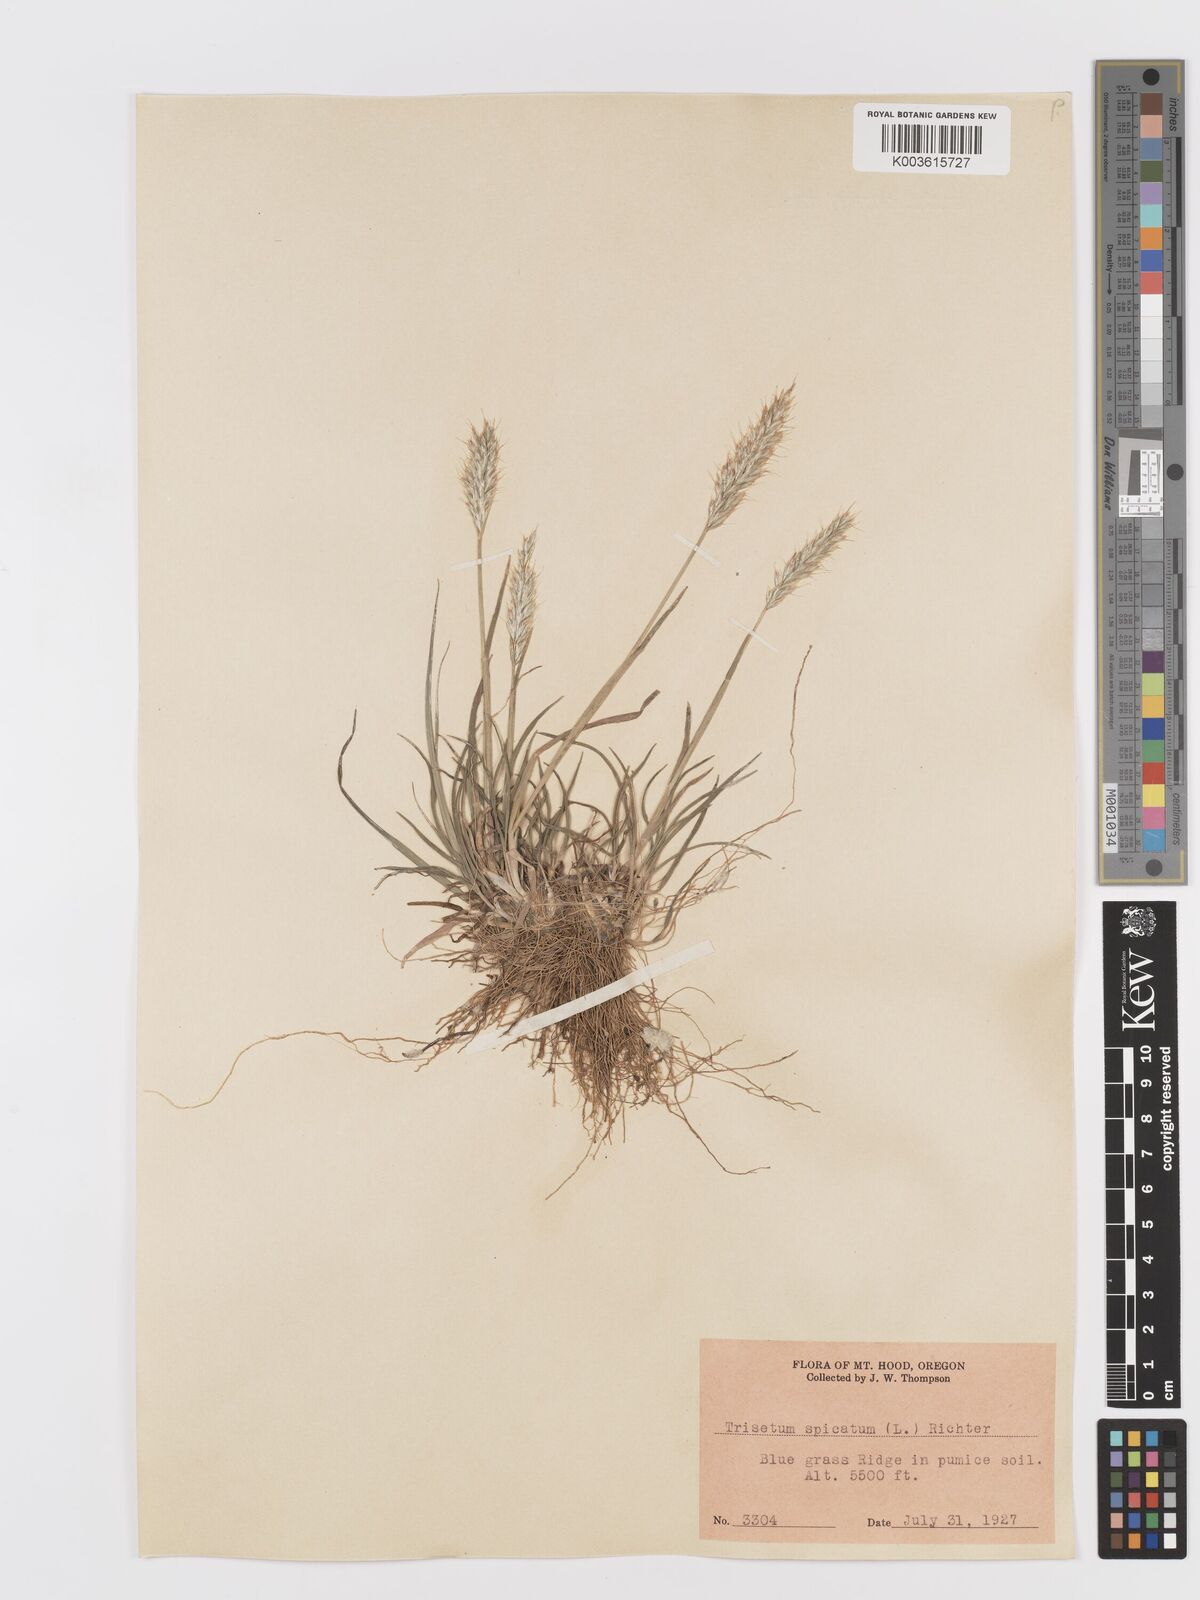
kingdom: Plantae
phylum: Tracheophyta
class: Liliopsida
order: Poales
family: Poaceae
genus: Koeleria
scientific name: Koeleria spicata
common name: Mountain trisetum
